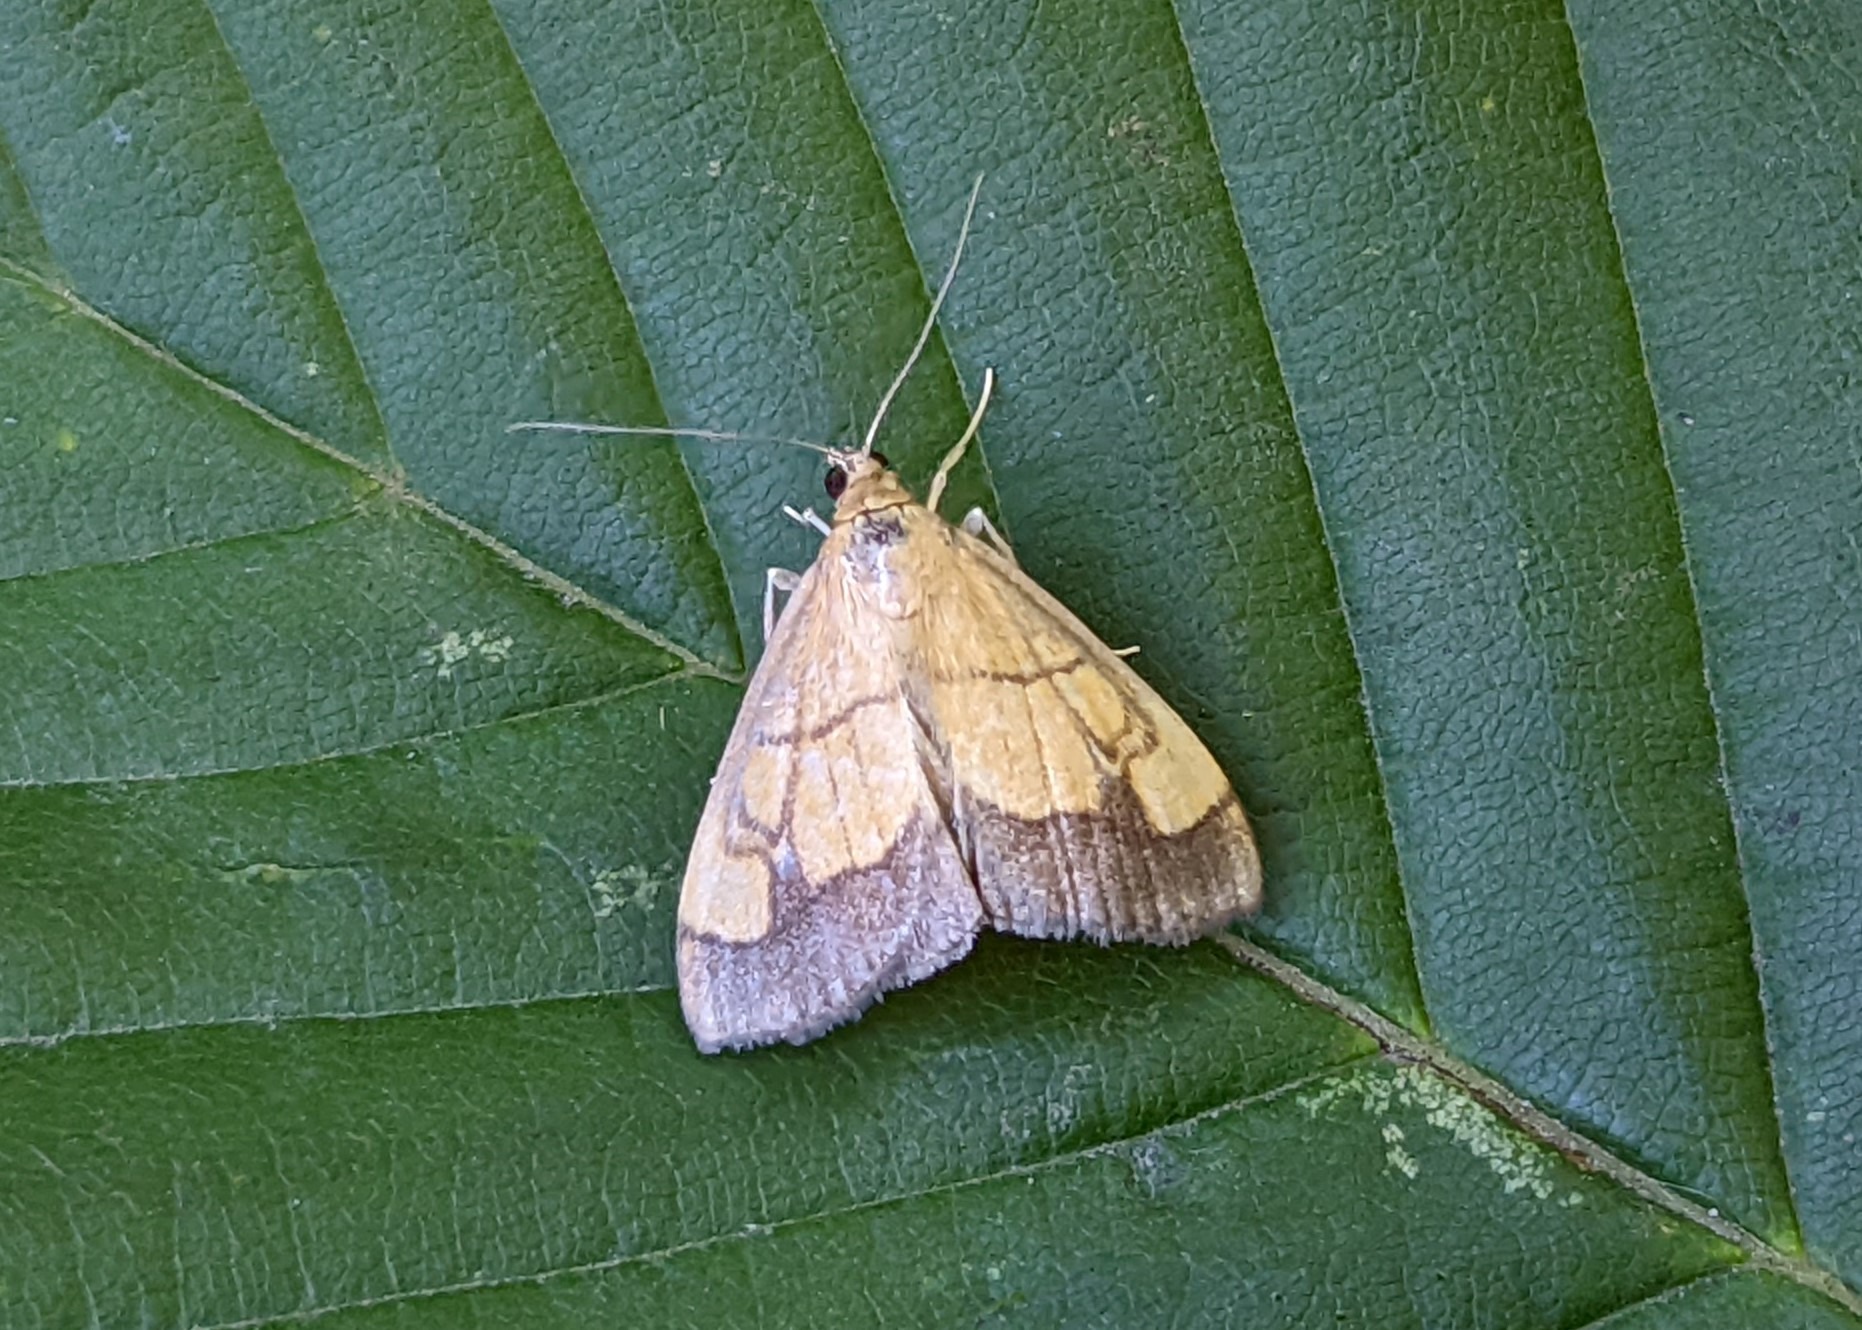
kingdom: Animalia
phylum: Arthropoda
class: Insecta
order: Lepidoptera
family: Crambidae
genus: Evergestis
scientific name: Evergestis limbata
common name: Løgkarsehalvmøl
